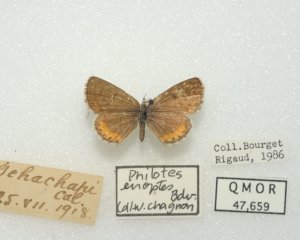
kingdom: Animalia
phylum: Arthropoda
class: Insecta
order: Lepidoptera
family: Lycaenidae
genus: Euphilotes
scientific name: Euphilotes enoptes
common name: Dotted Blue
